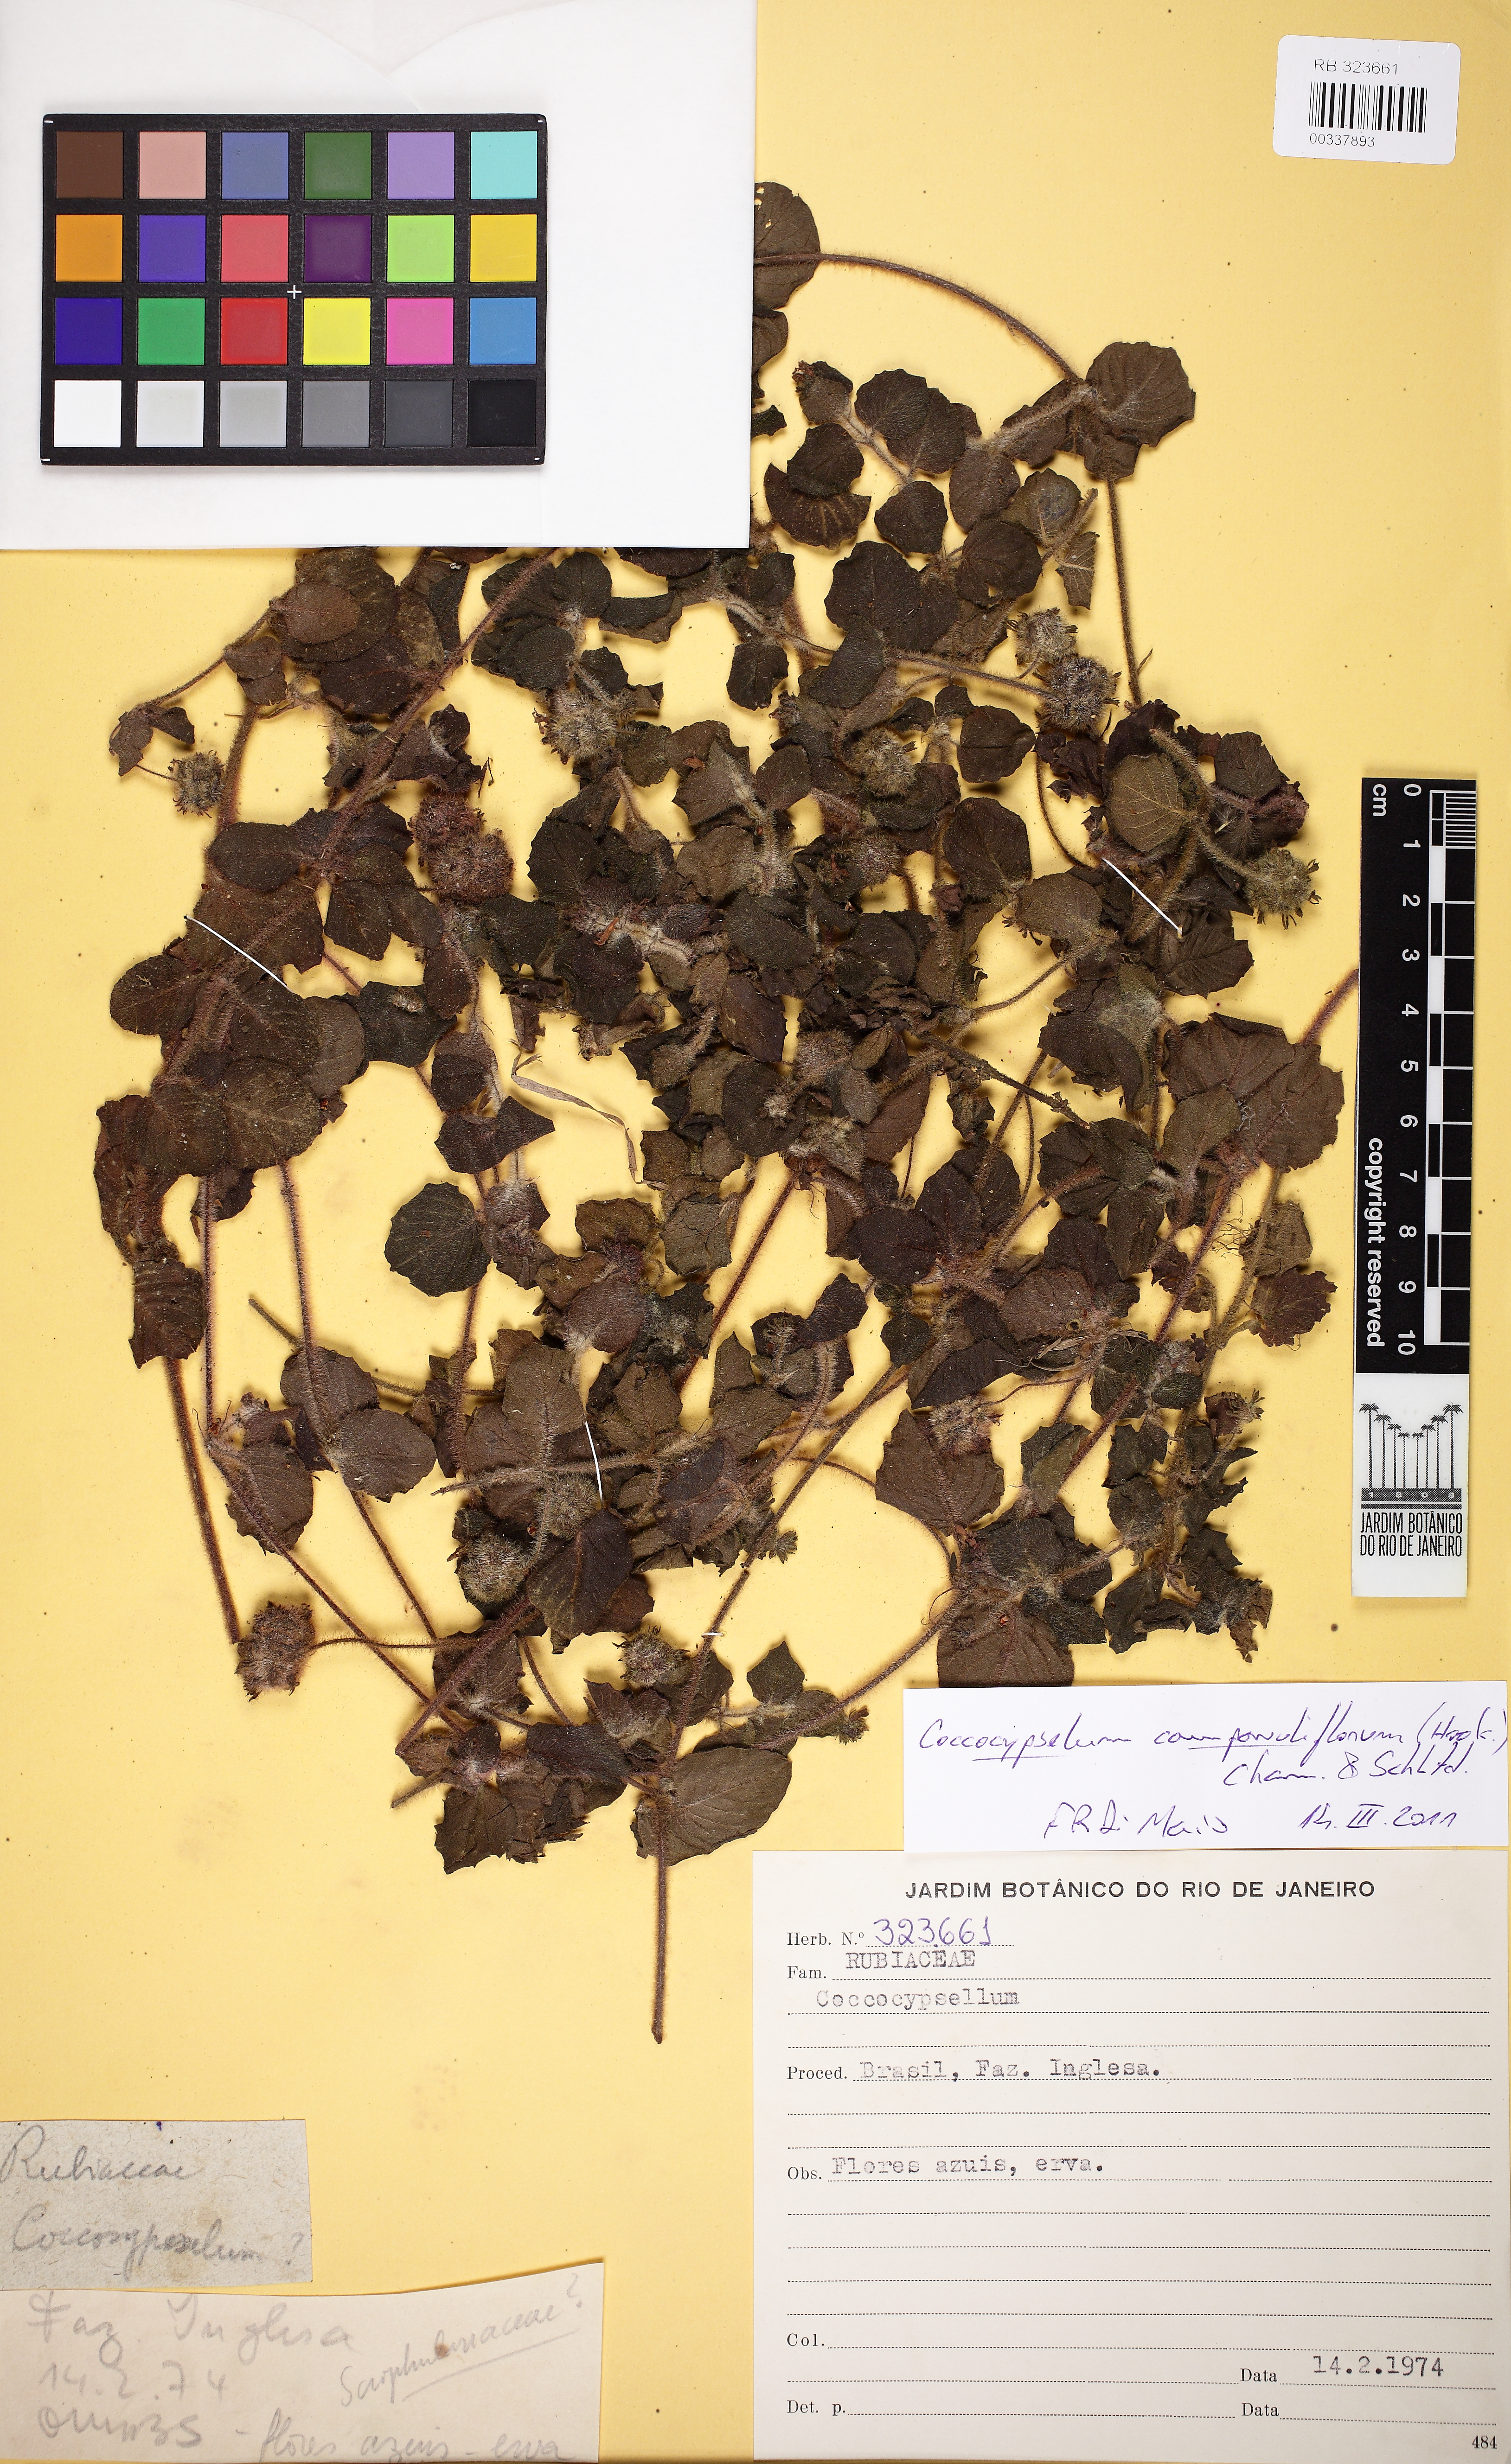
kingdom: Plantae
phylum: Tracheophyta
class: Magnoliopsida
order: Gentianales
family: Rubiaceae
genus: Coccocypselum
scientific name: Coccocypselum capitatum
